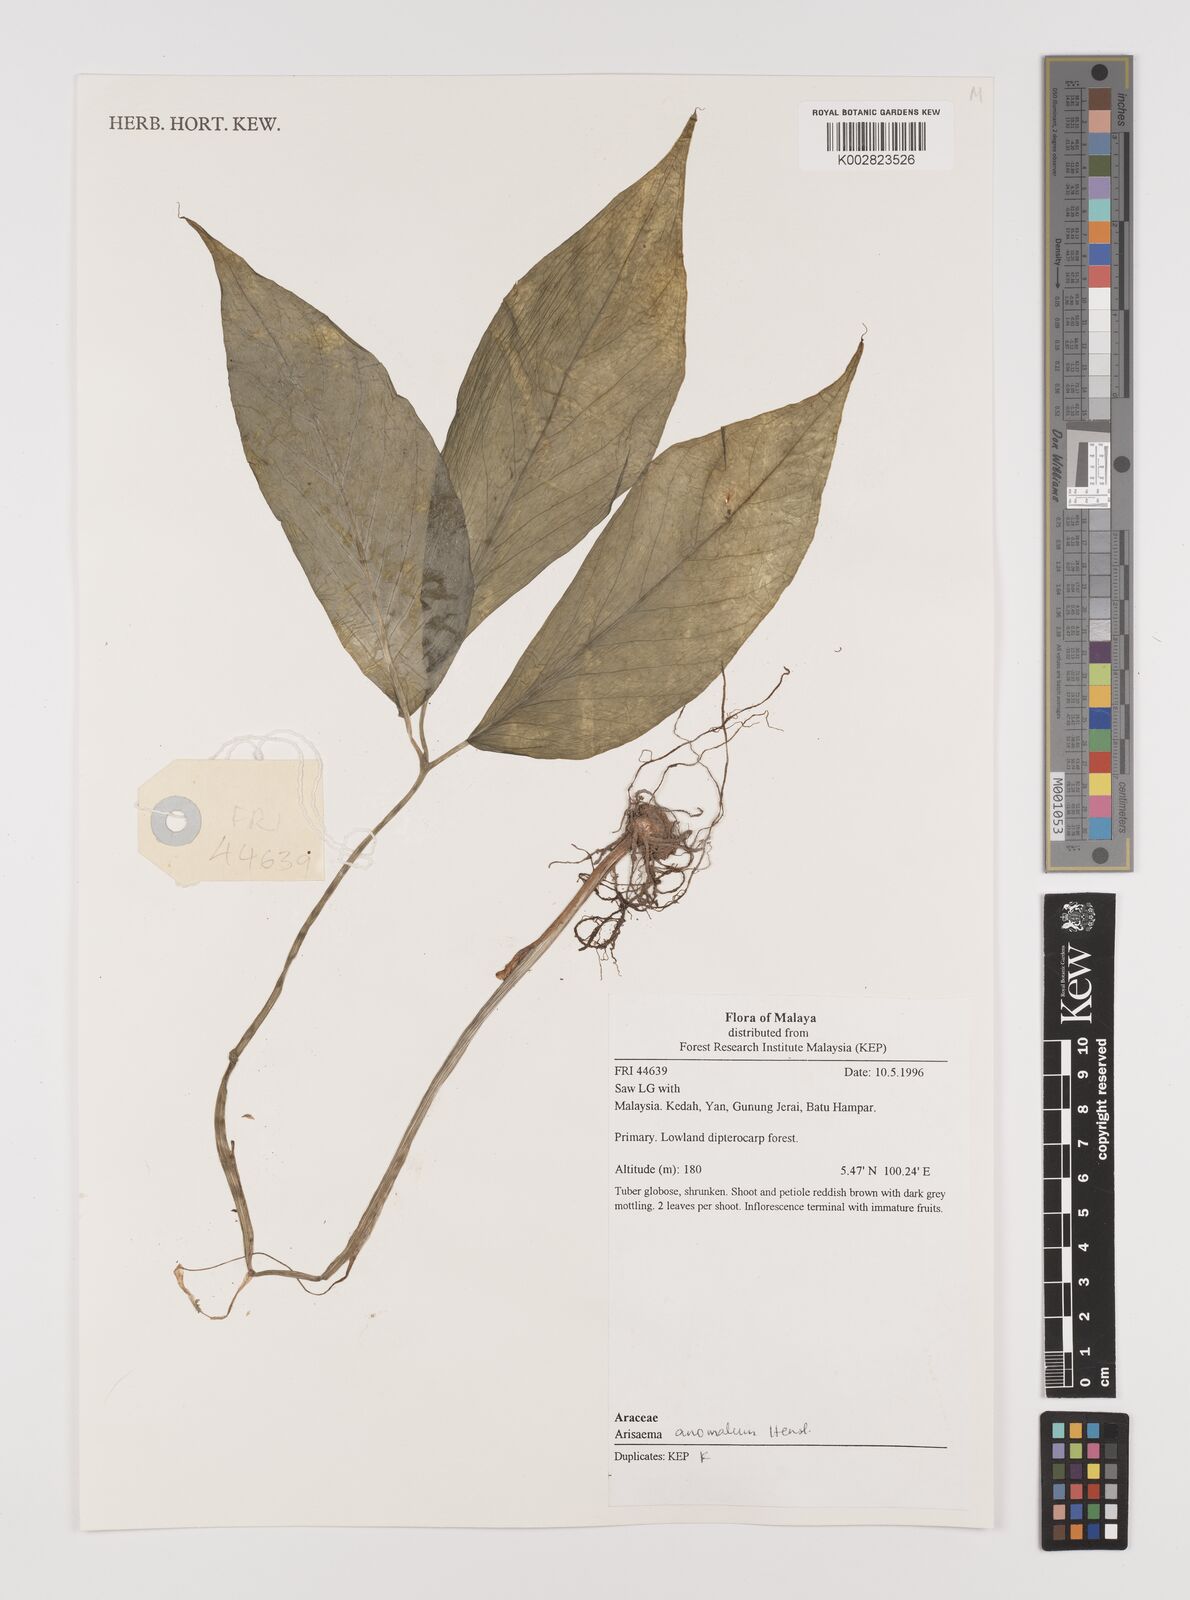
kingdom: Plantae
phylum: Tracheophyta
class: Liliopsida
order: Alismatales
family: Araceae
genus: Arisaema
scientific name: Arisaema anomalum
